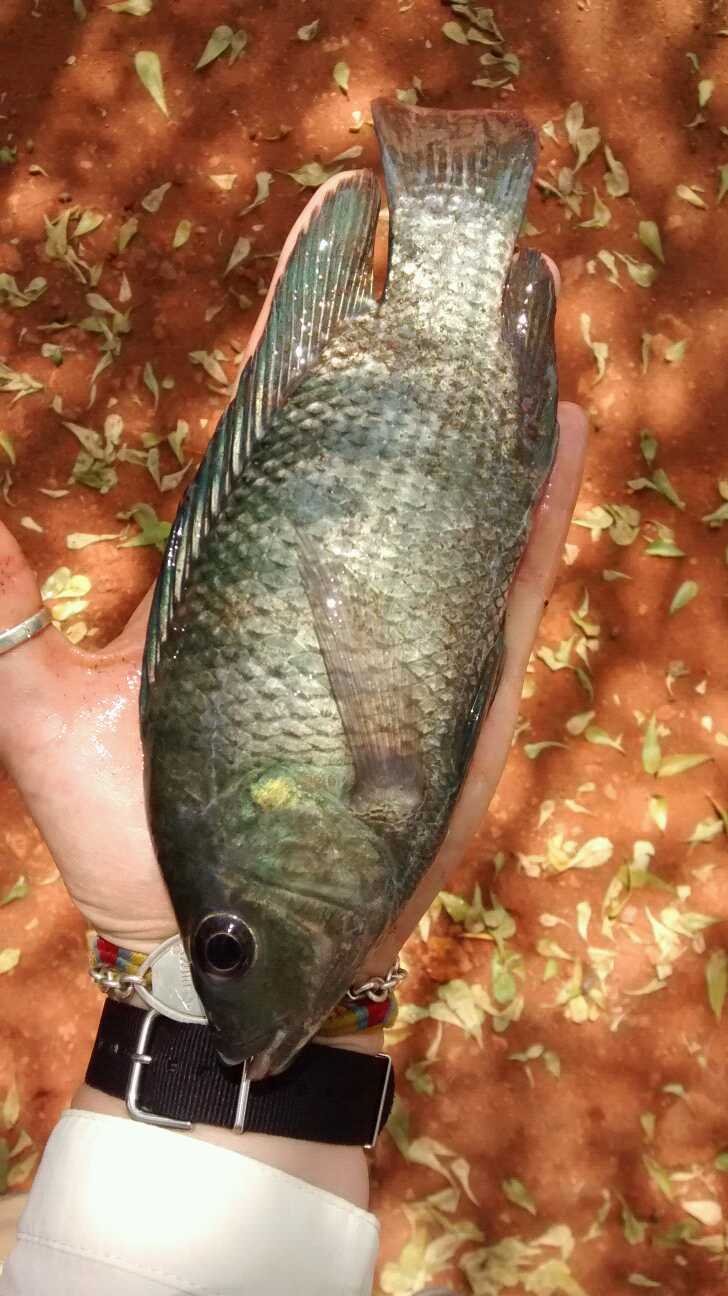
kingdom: Animalia
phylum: Chordata
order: Perciformes
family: Cichlidae
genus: Oreochromis
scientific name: Oreochromis niloticus
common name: Nile tilapia
